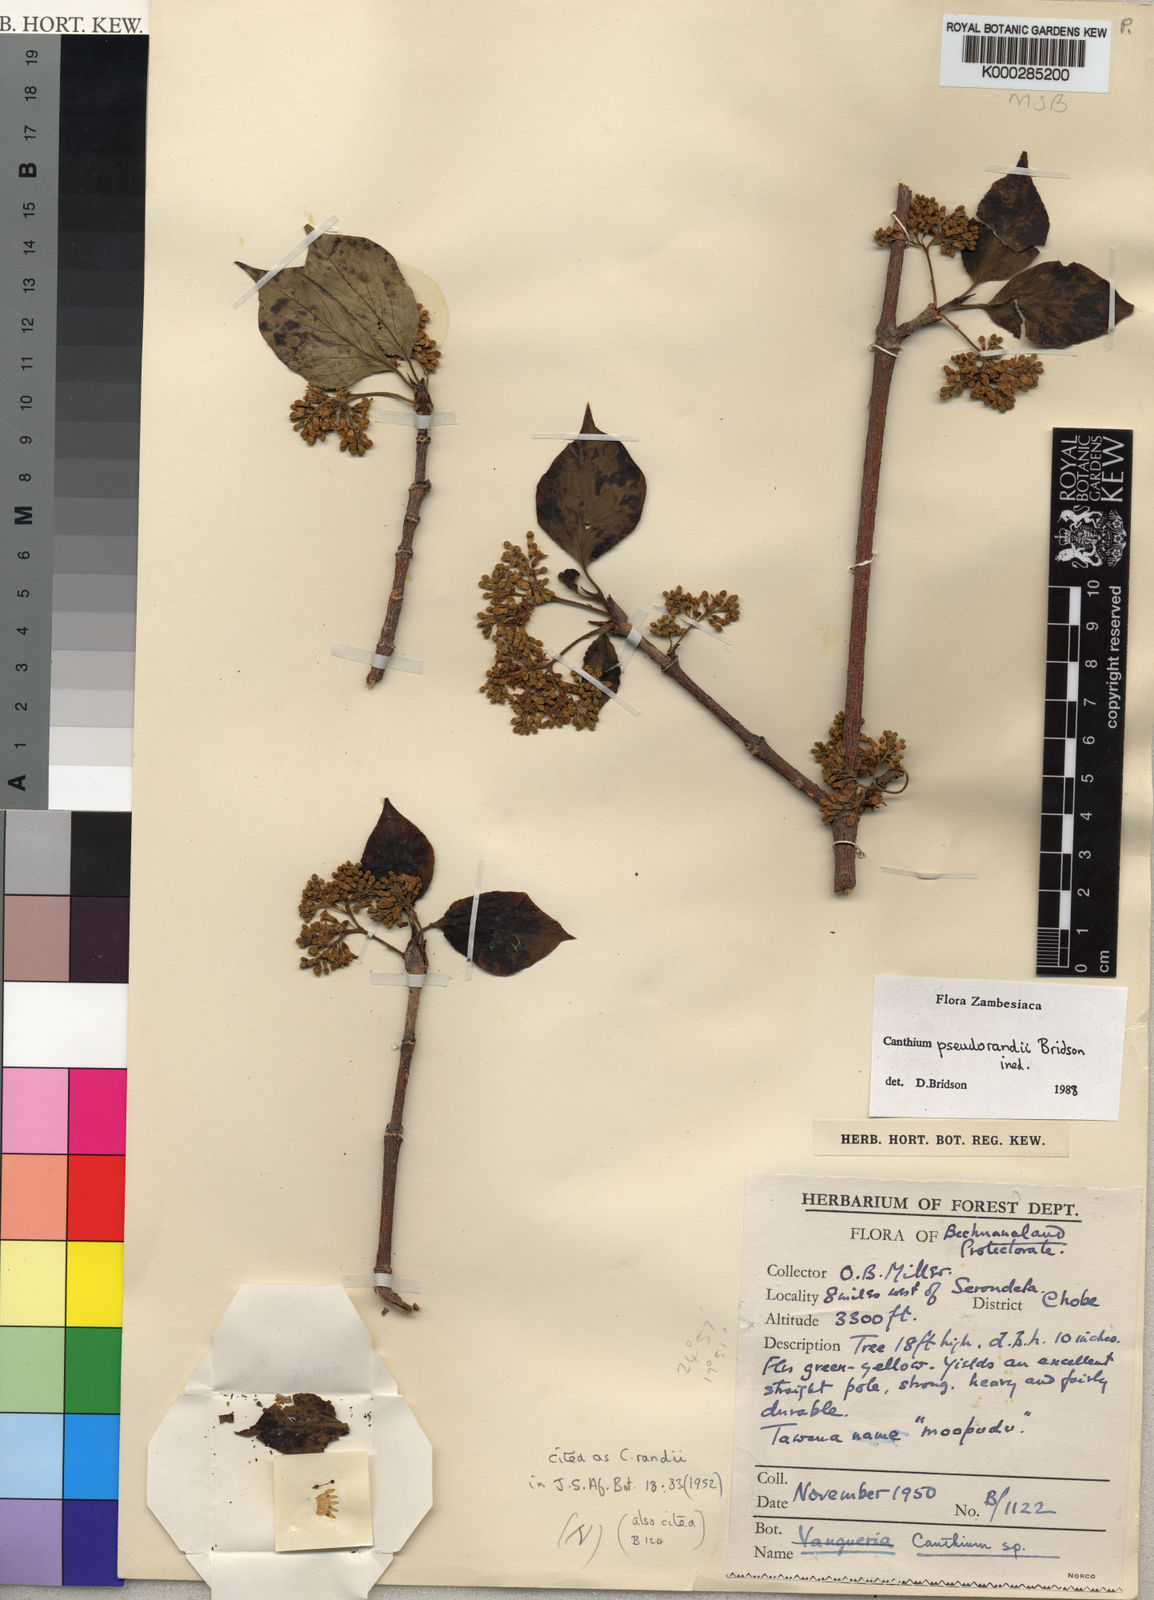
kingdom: Plantae
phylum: Tracheophyta
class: Magnoliopsida
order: Gentianales
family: Rubiaceae
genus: Afrocanthium
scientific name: Afrocanthium pseudorandii
